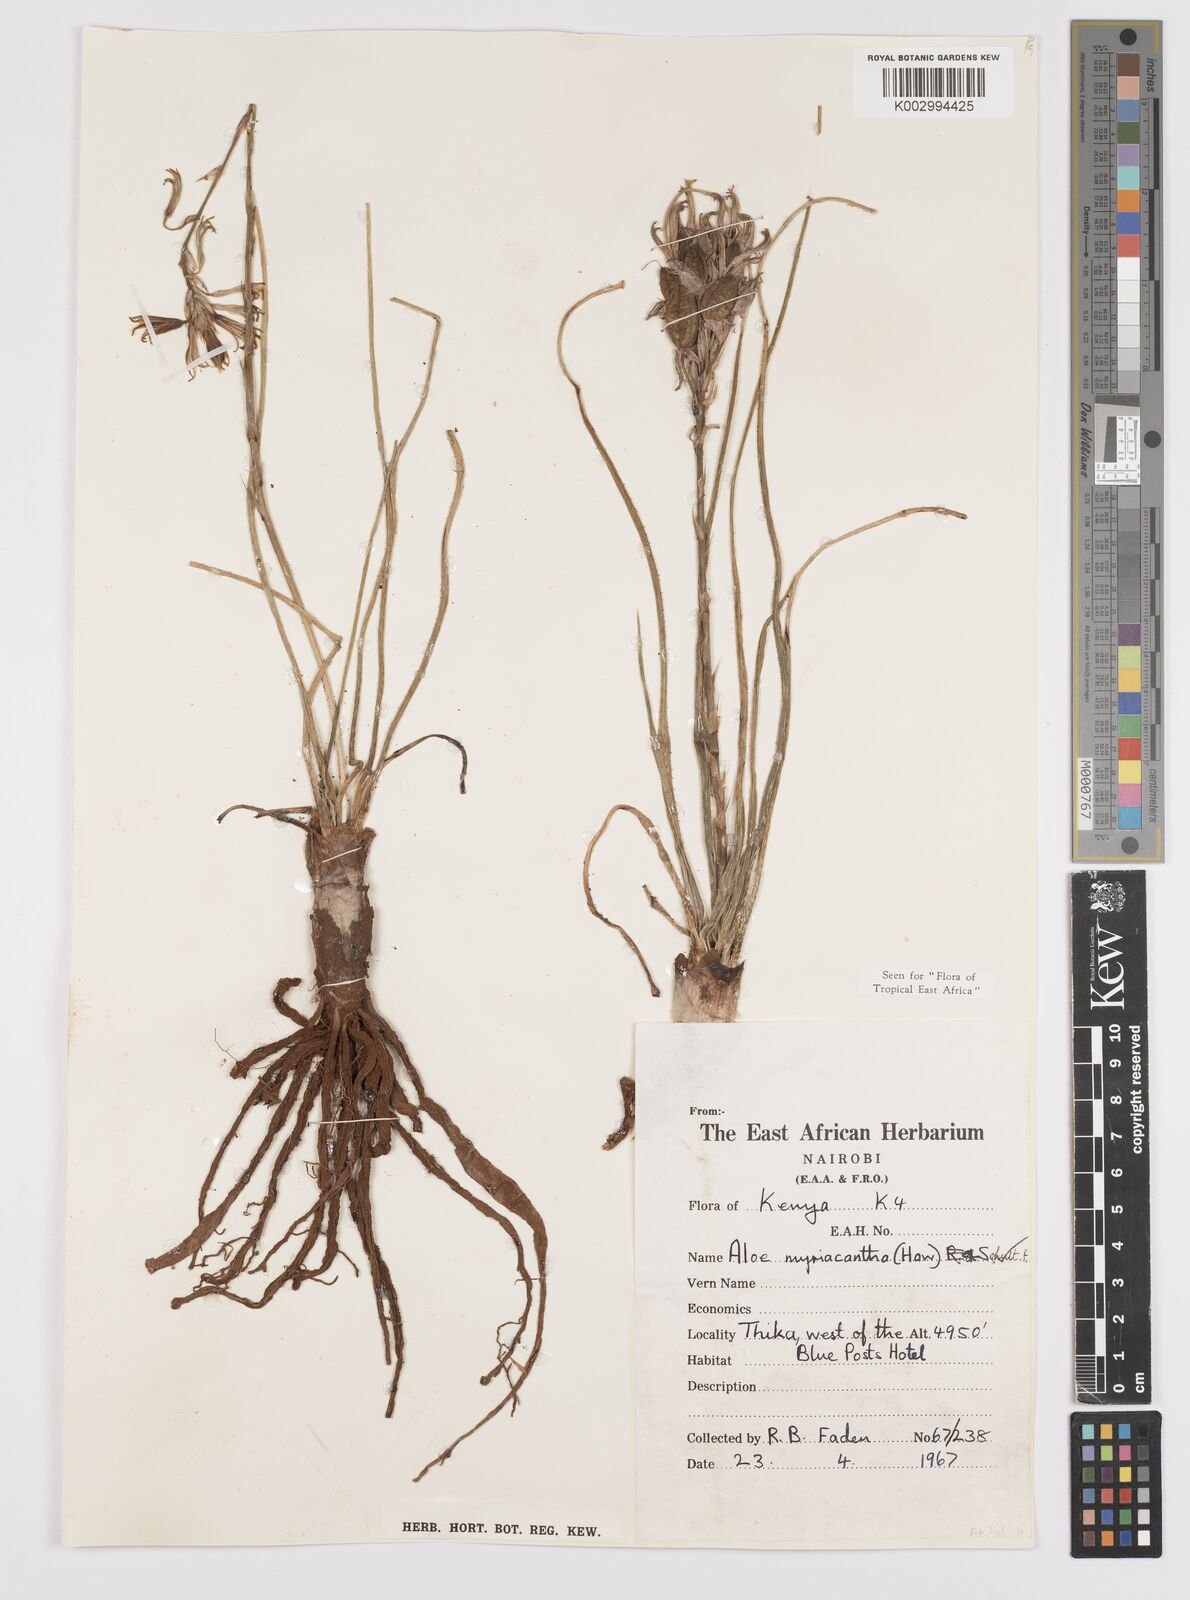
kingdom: Plantae
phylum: Tracheophyta
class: Liliopsida
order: Asparagales
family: Asphodelaceae
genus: Aloe
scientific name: Aloe myriacantha
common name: Grass aloe
